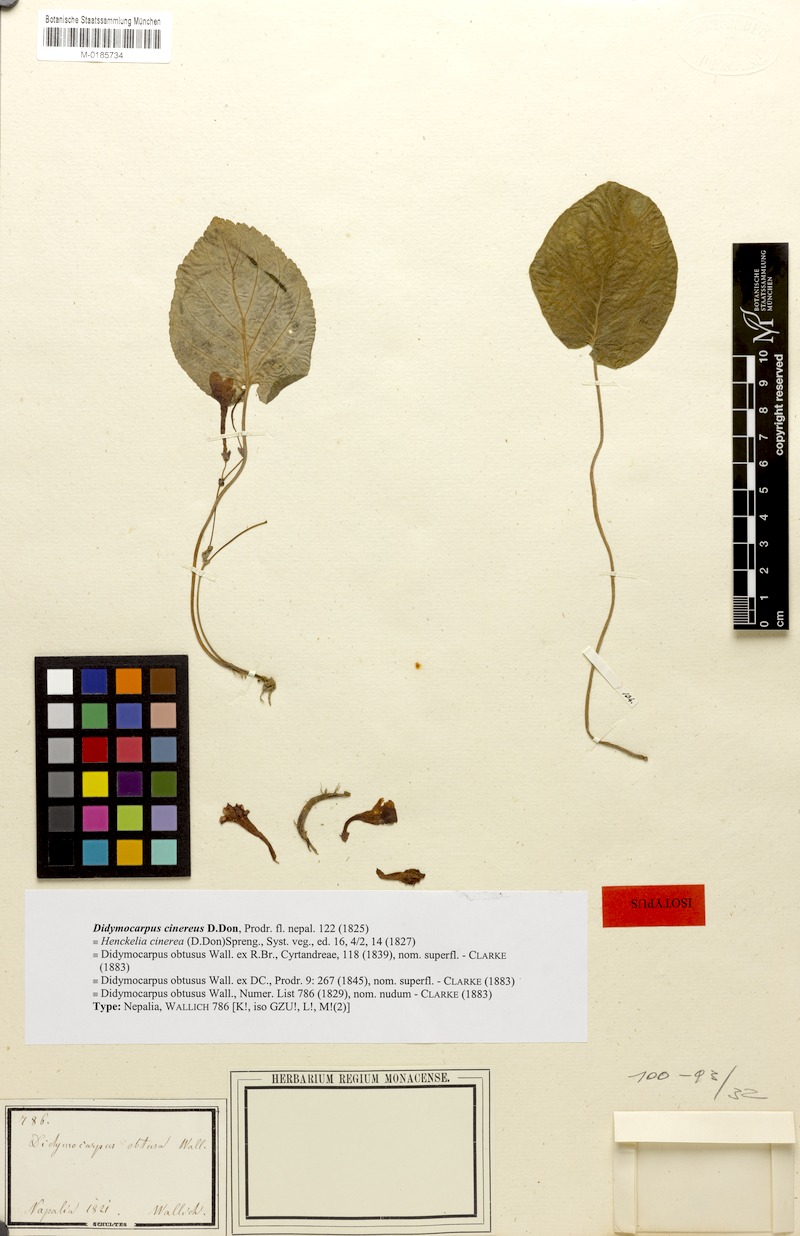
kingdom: Plantae
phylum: Tracheophyta
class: Magnoliopsida
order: Lamiales
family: Gesneriaceae
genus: Didymocarpus
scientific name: Didymocarpus cinerea
